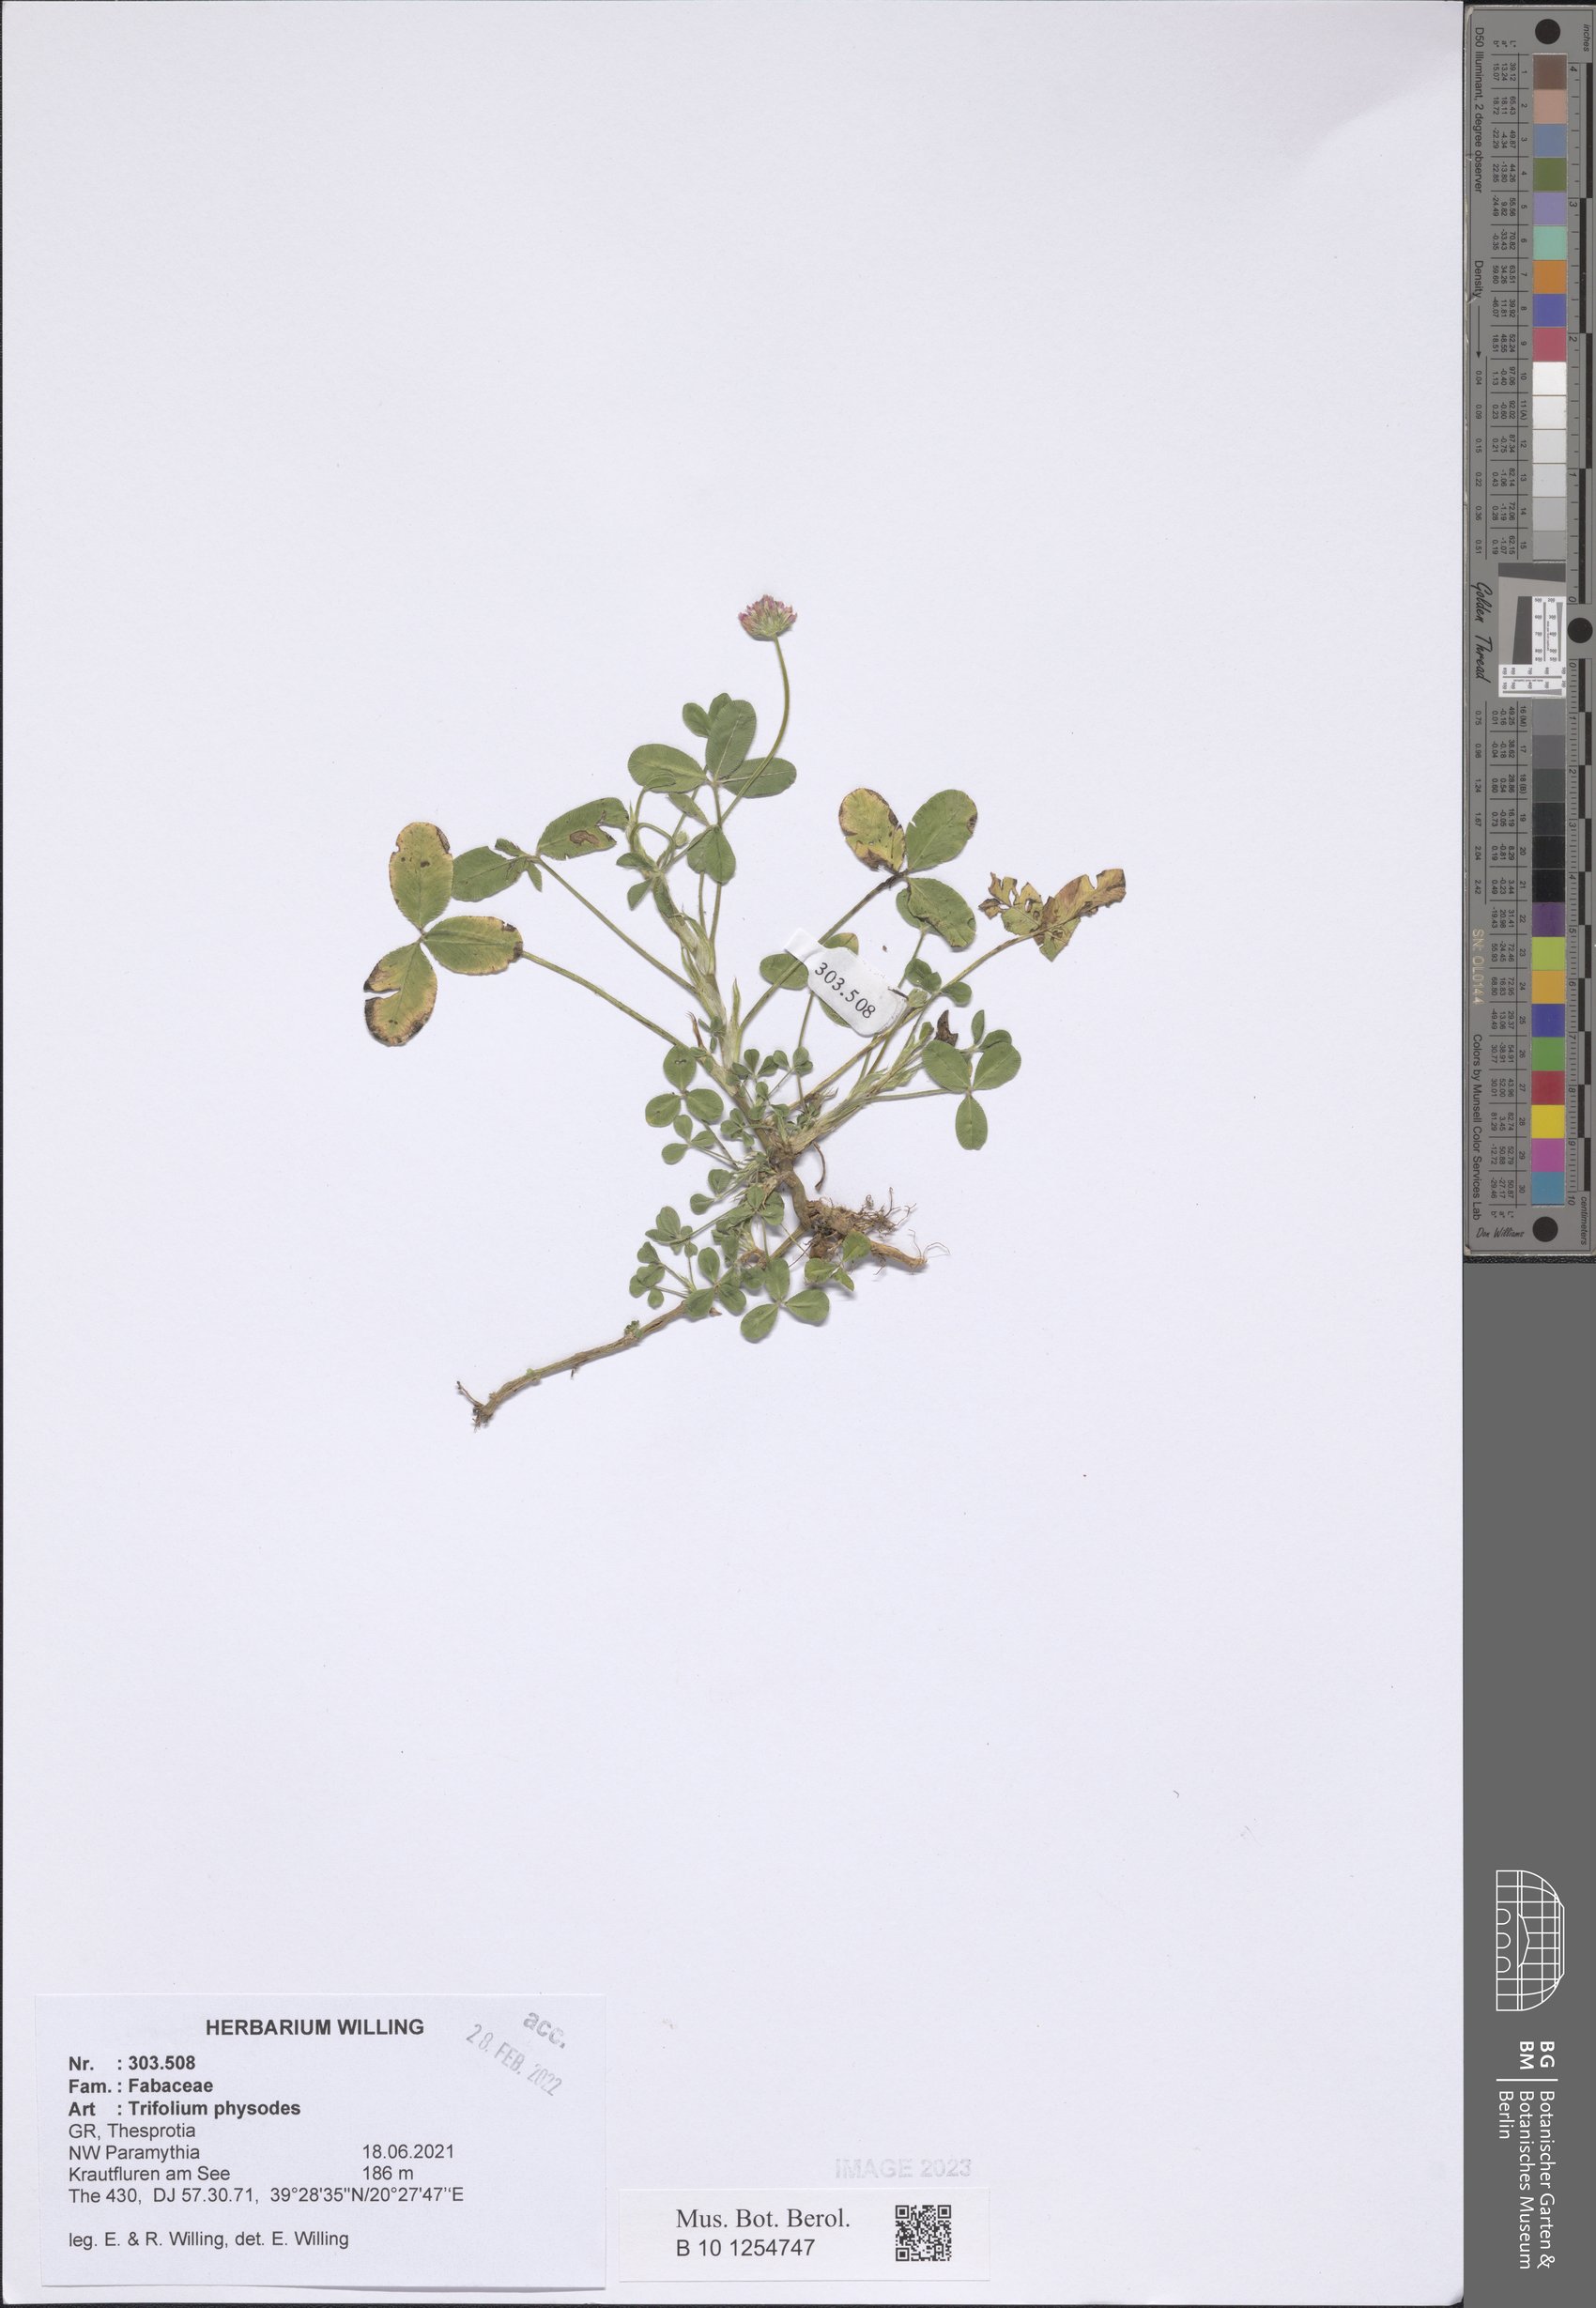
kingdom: Plantae
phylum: Tracheophyta
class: Magnoliopsida
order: Fabales
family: Fabaceae
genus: Trifolium
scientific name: Trifolium physodes
